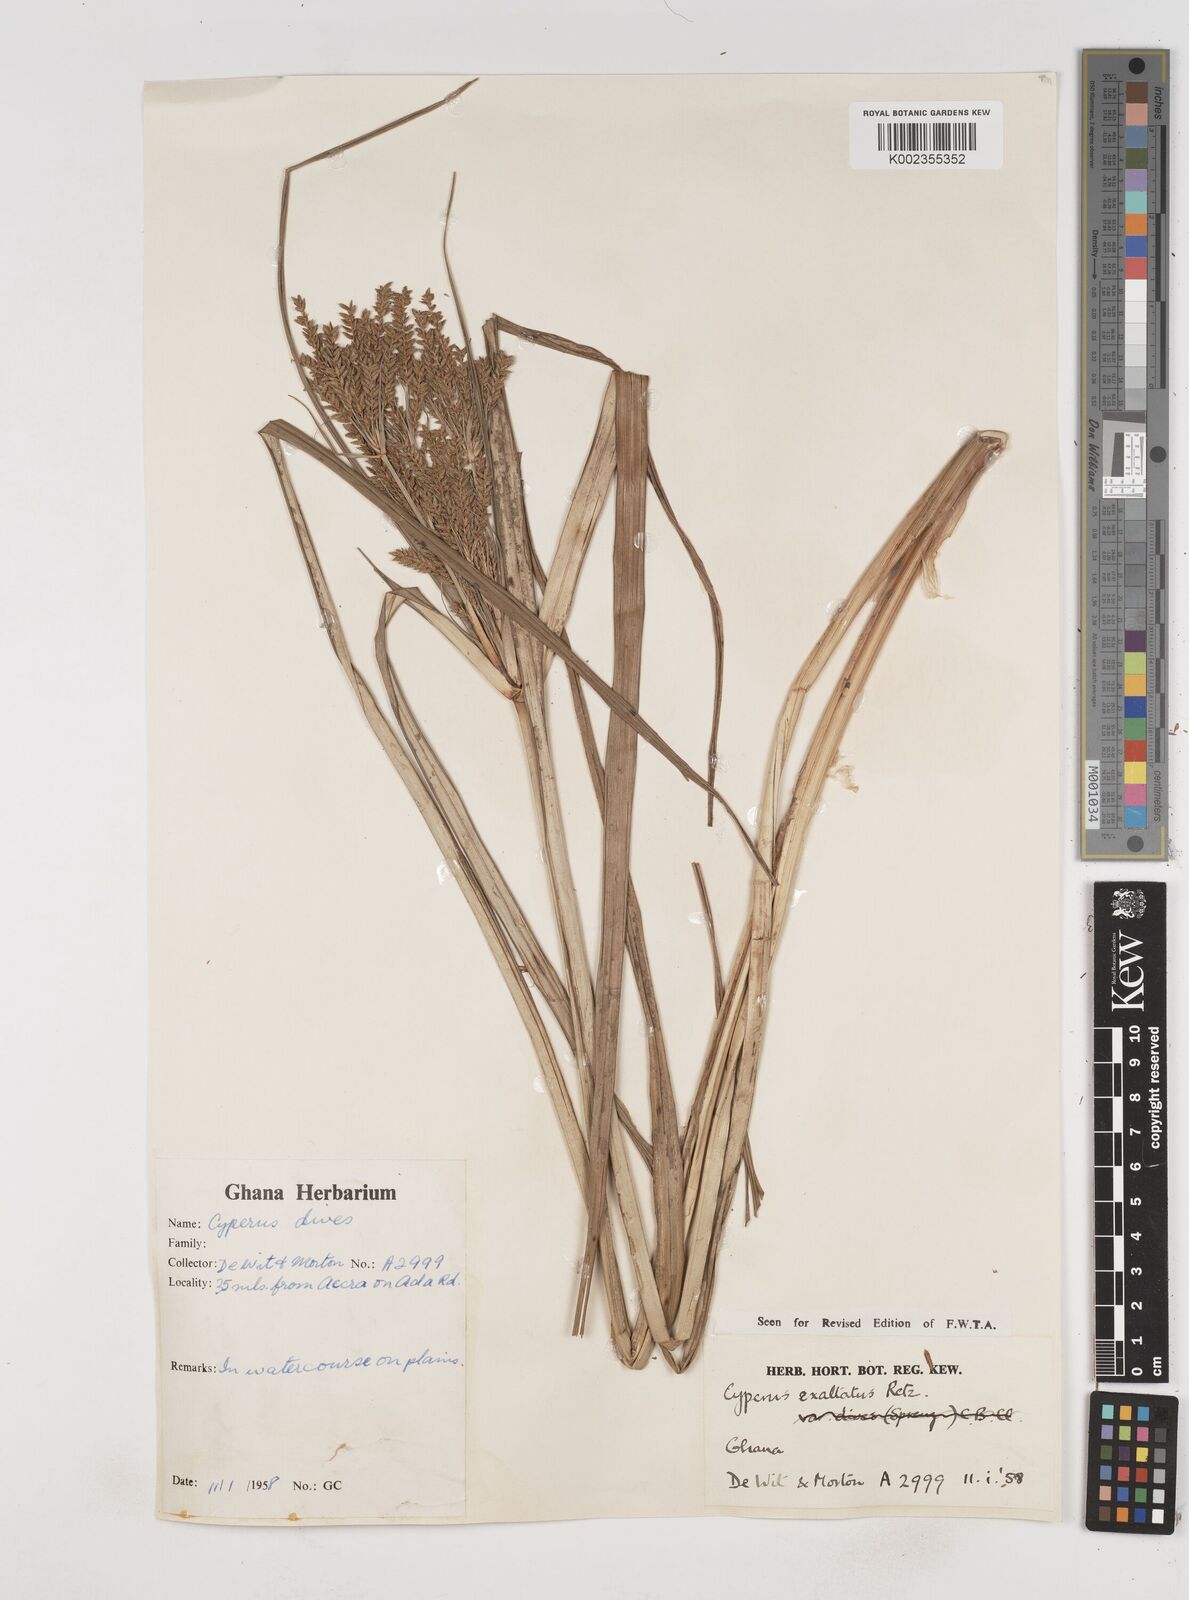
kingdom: Plantae
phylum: Tracheophyta
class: Liliopsida
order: Poales
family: Cyperaceae
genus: Cyperus
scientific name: Cyperus exaltatus
